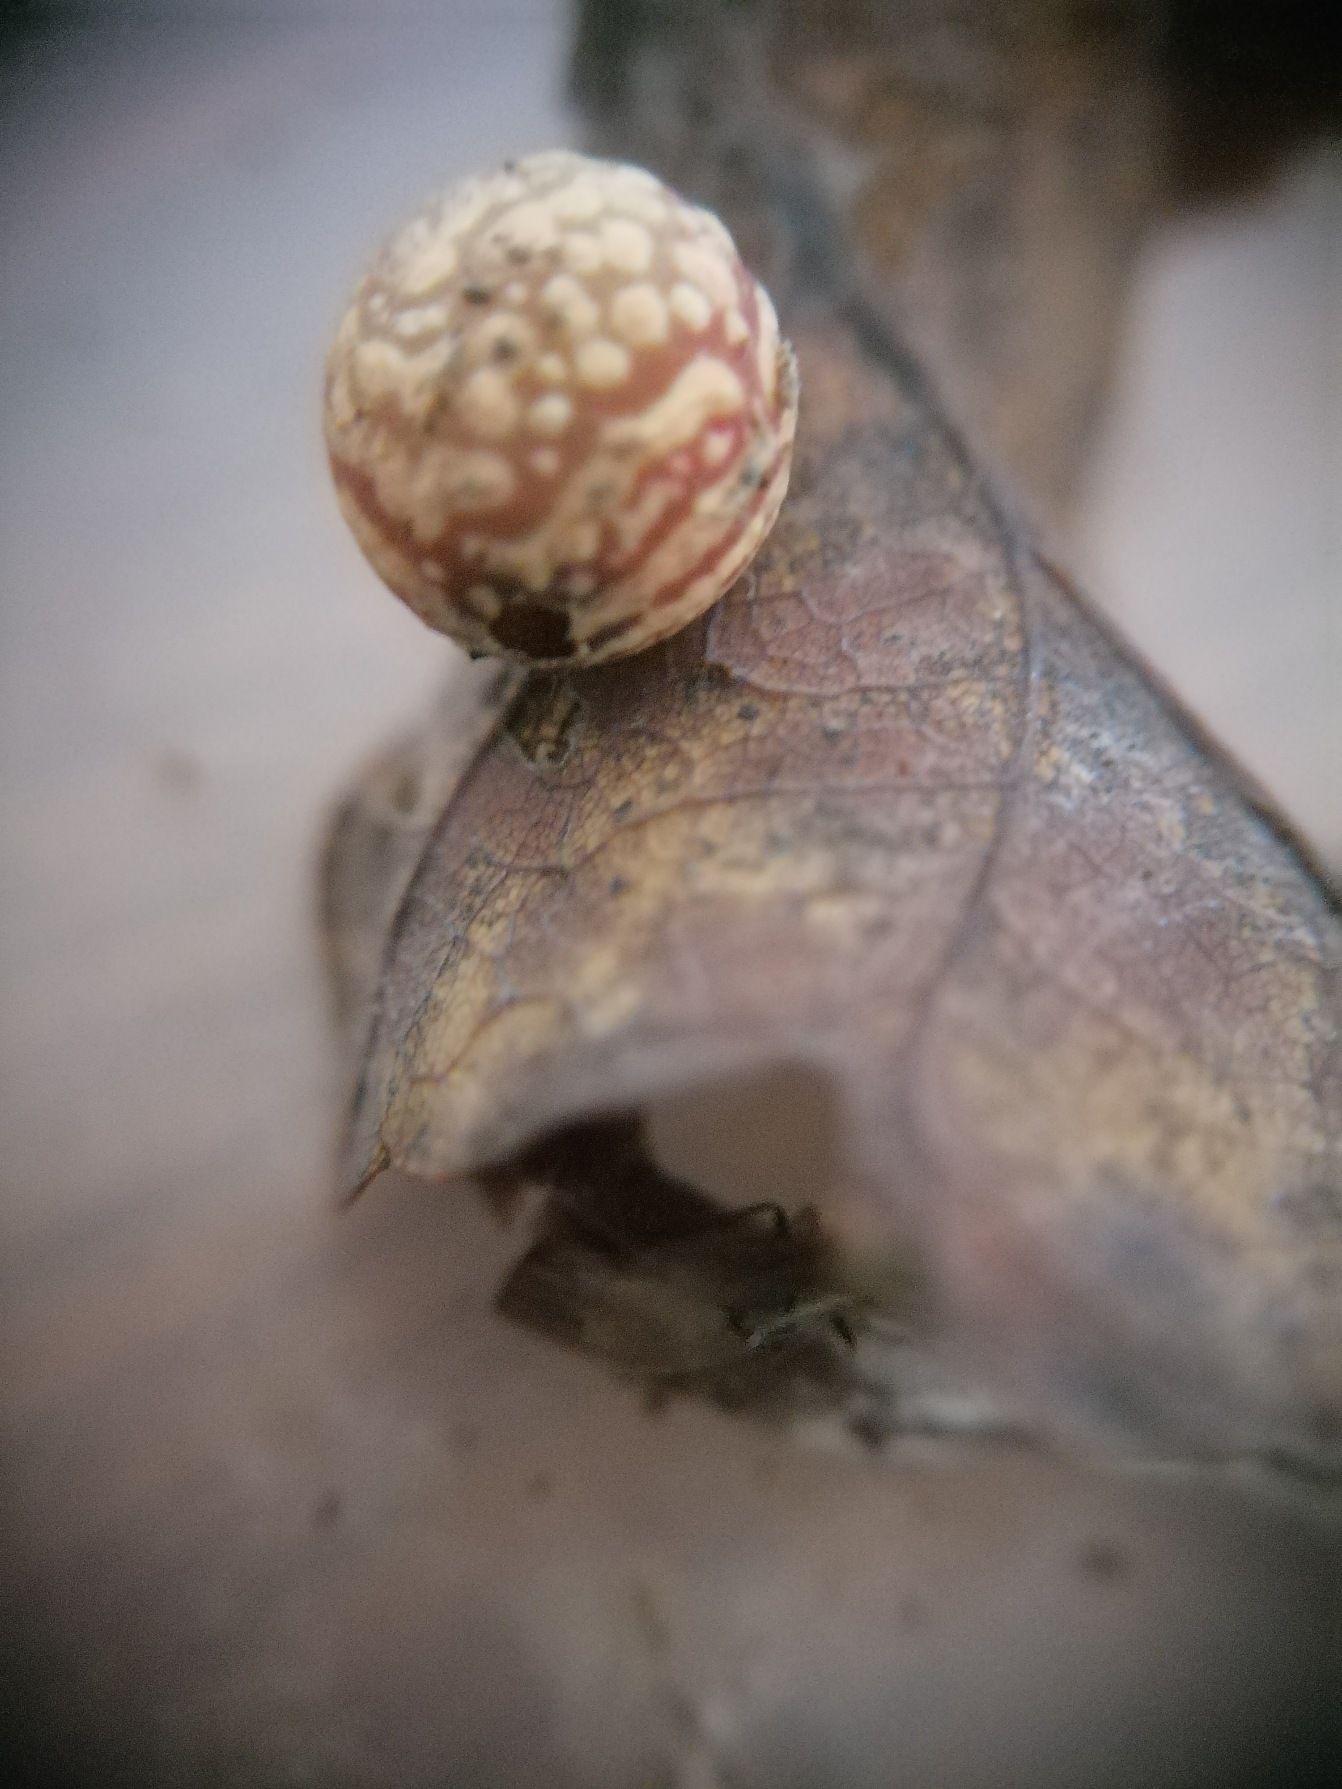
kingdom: Animalia
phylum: Arthropoda
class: Insecta
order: Hymenoptera
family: Cynipidae
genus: Cynips
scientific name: Cynips longiventris
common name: Dannebrogsgalhveps
